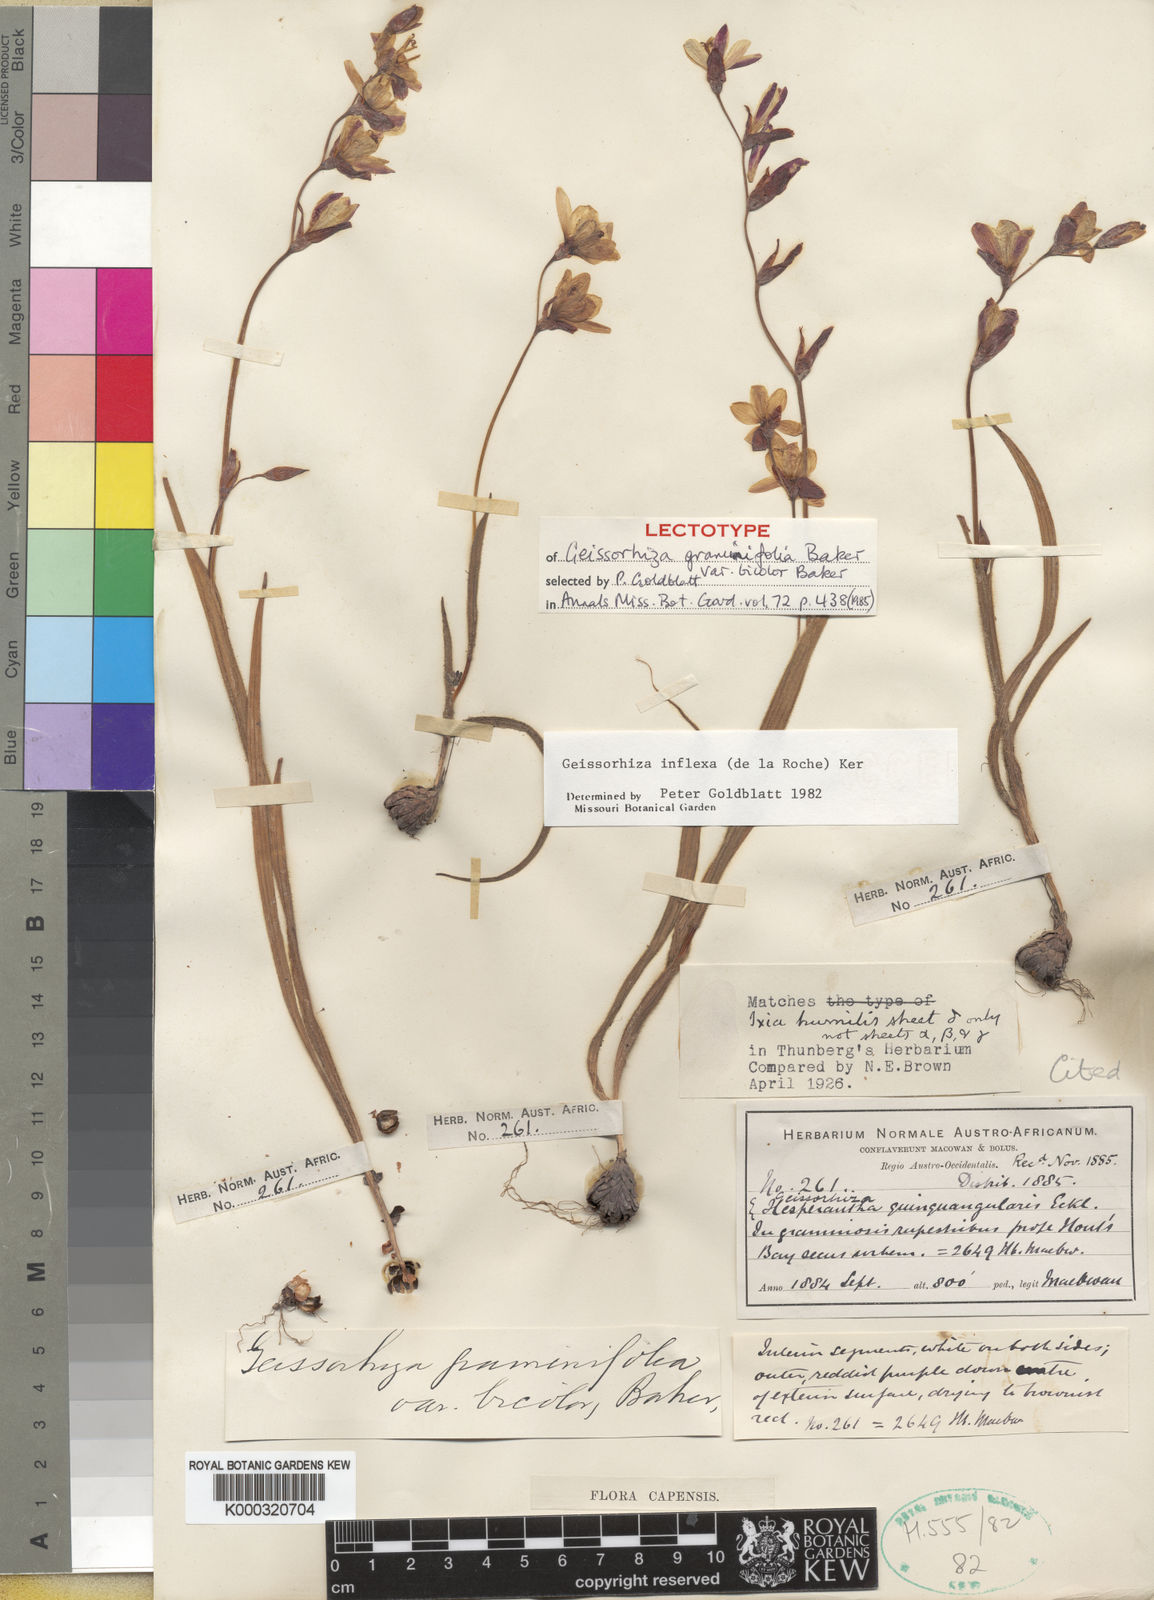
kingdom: Plantae
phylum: Tracheophyta
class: Liliopsida
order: Asparagales
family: Iridaceae
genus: Geissorhiza
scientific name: Geissorhiza inflexa
